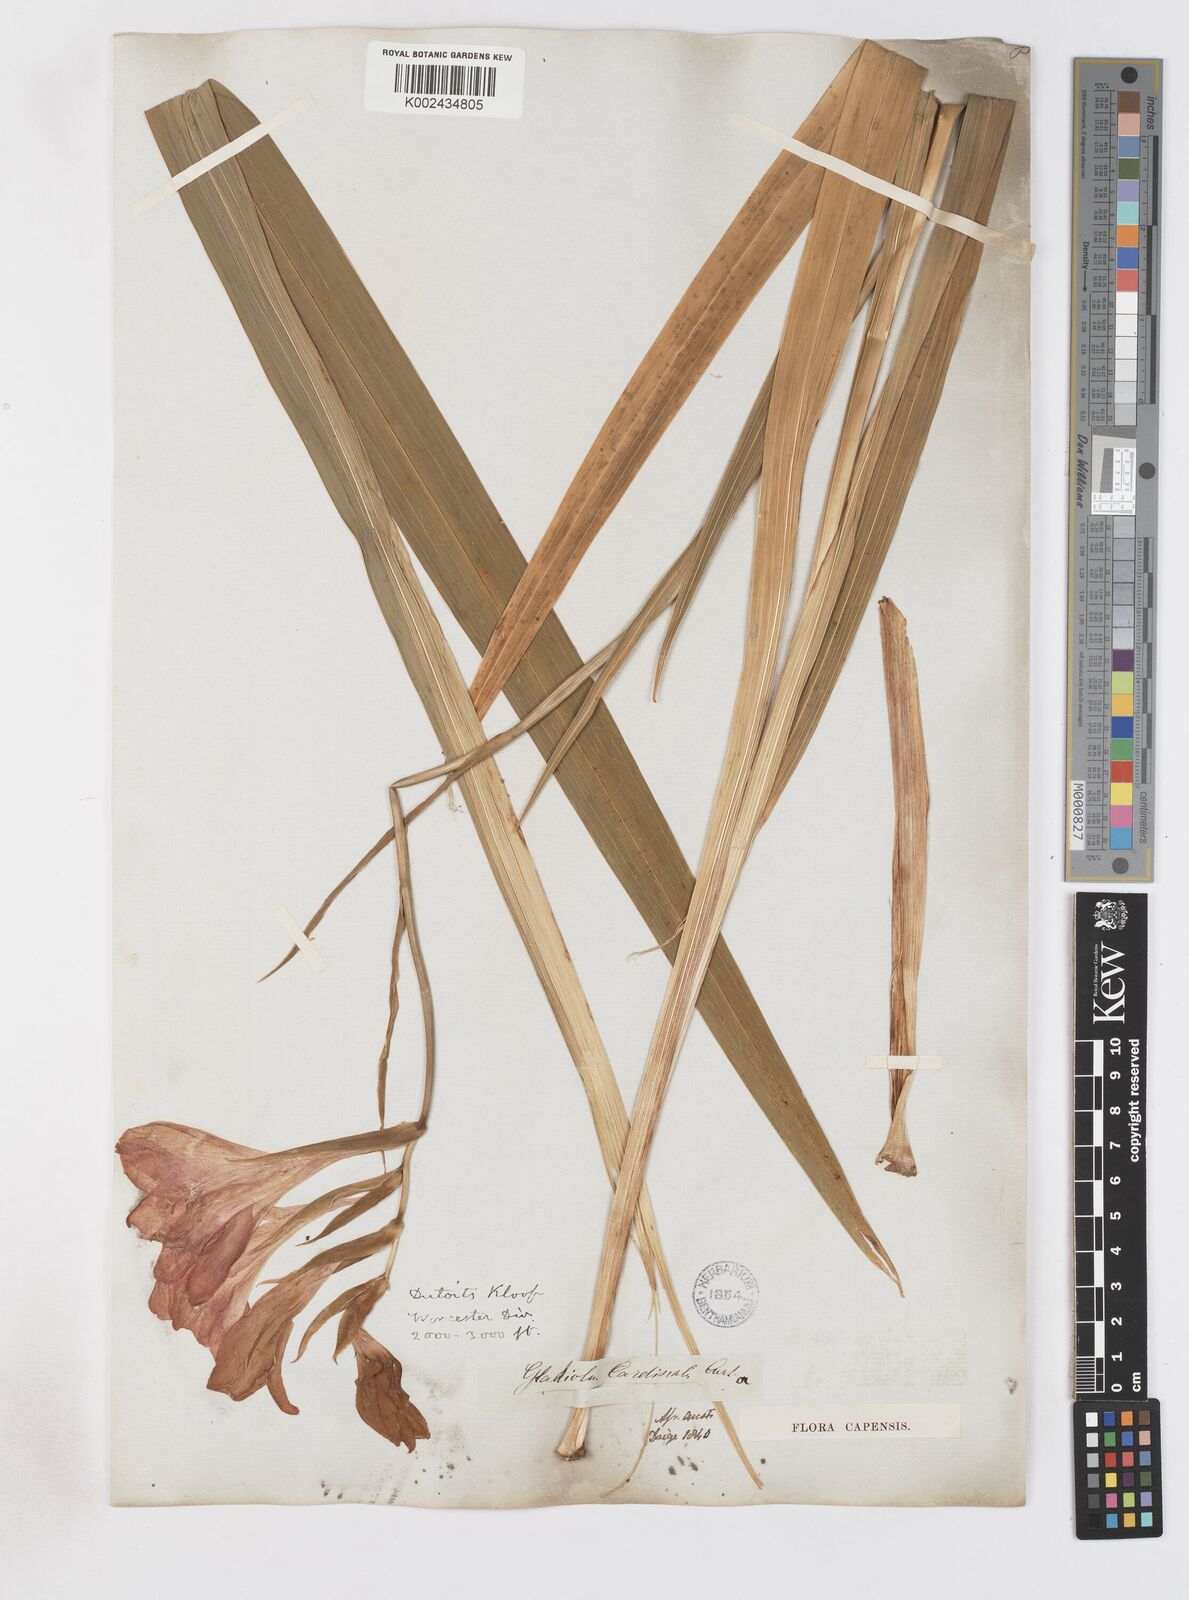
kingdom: Plantae
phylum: Tracheophyta
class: Liliopsida
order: Asparagales
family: Iridaceae
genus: Gladiolus
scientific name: Gladiolus cardinalis
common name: New year-lily
